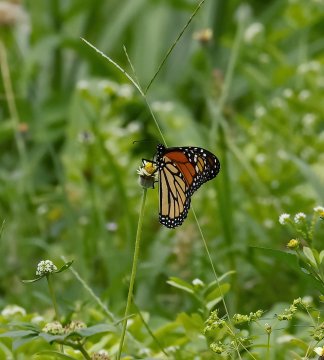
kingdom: Animalia
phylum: Arthropoda
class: Insecta
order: Lepidoptera
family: Nymphalidae
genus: Danaus
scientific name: Danaus plexippus
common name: Monarch
